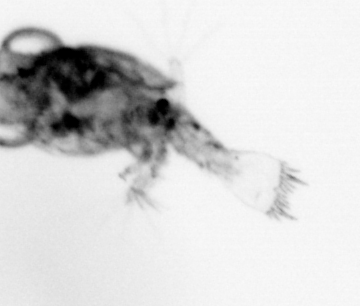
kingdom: Animalia
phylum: Arthropoda
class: Malacostraca
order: Decapoda
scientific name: Decapoda
